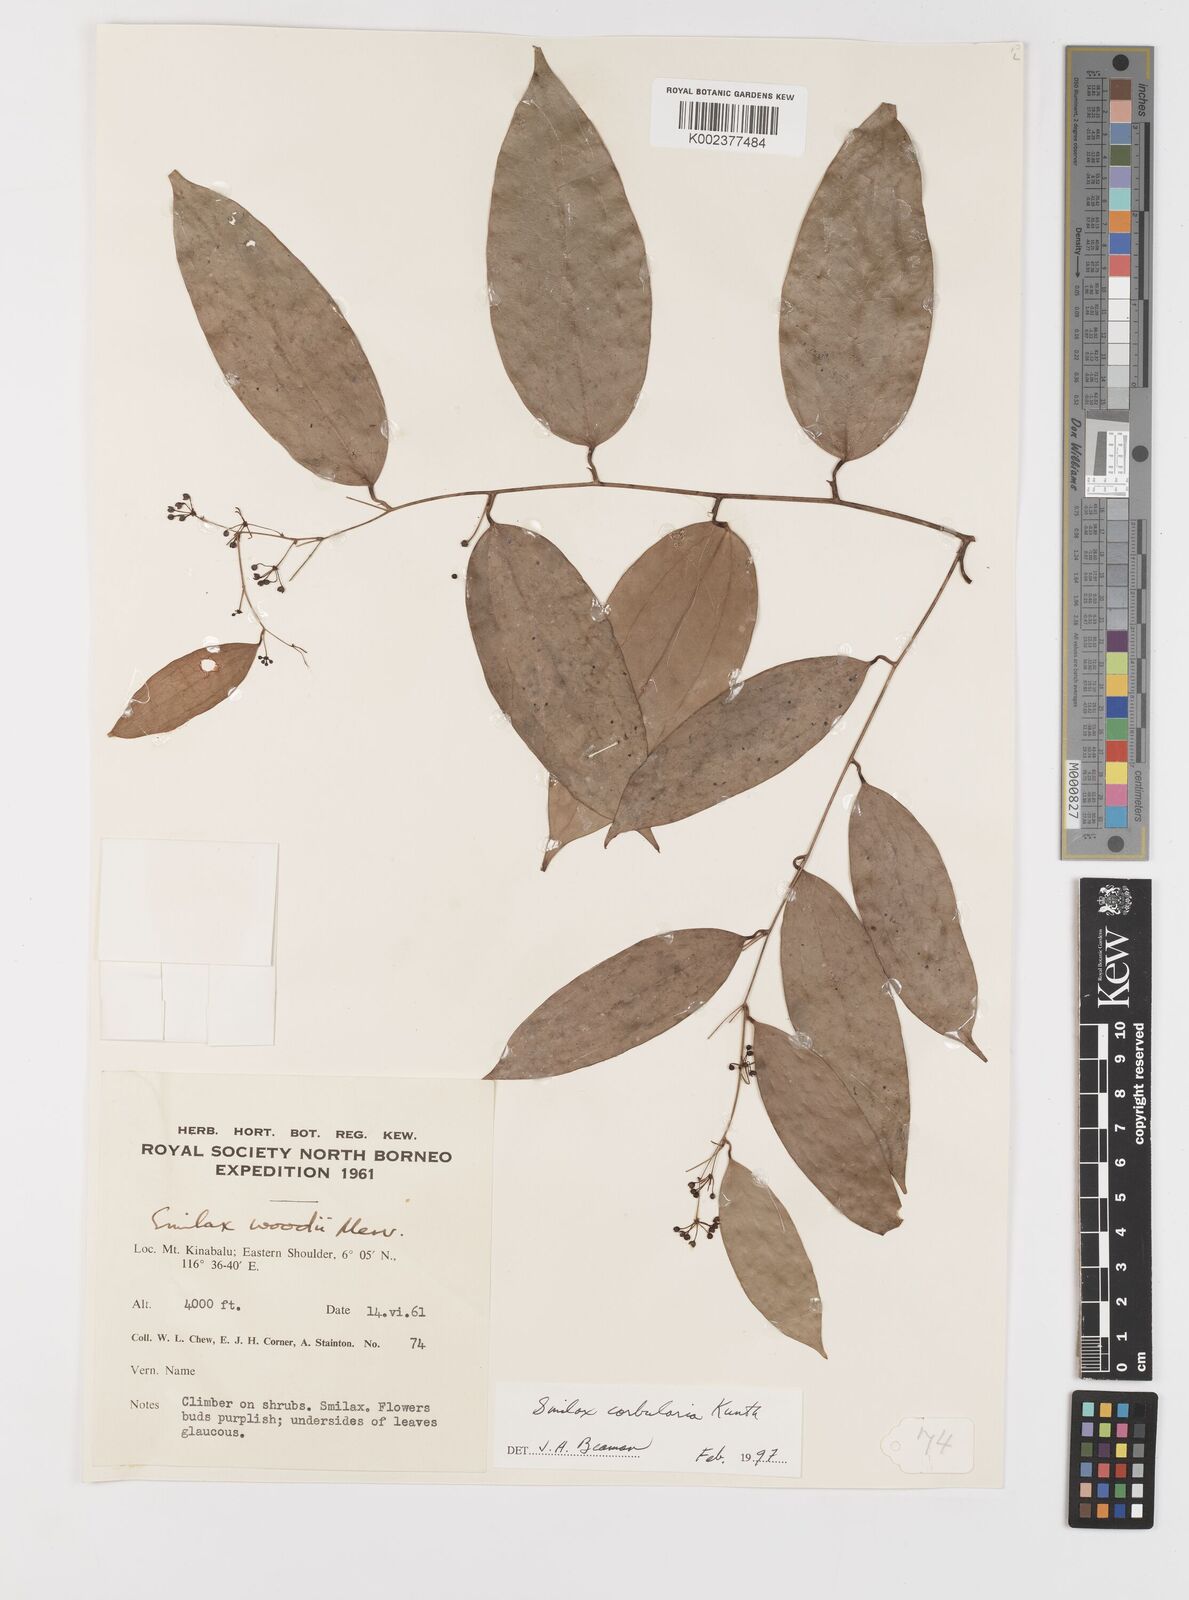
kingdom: Plantae
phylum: Tracheophyta
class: Liliopsida
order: Liliales
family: Smilacaceae
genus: Smilax
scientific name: Smilax corbularia
